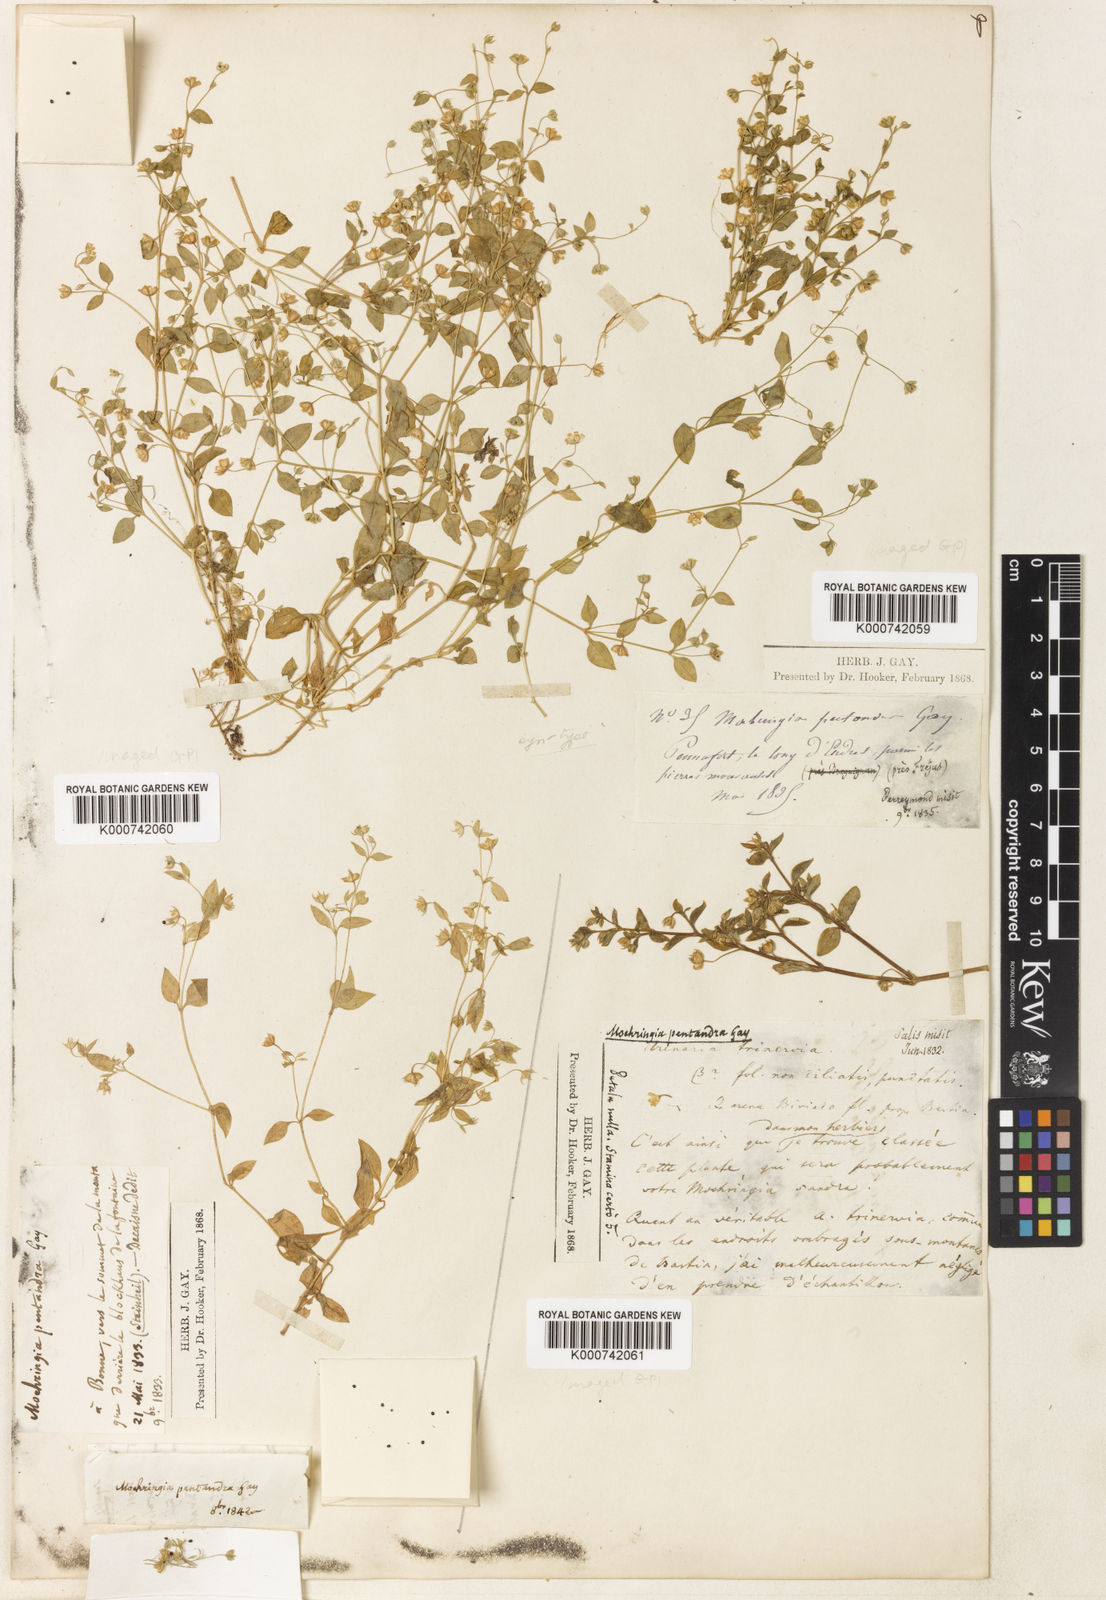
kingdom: Plantae
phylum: Tracheophyta
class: Magnoliopsida
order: Caryophyllales
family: Caryophyllaceae
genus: Moehringia
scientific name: Moehringia pentandra
